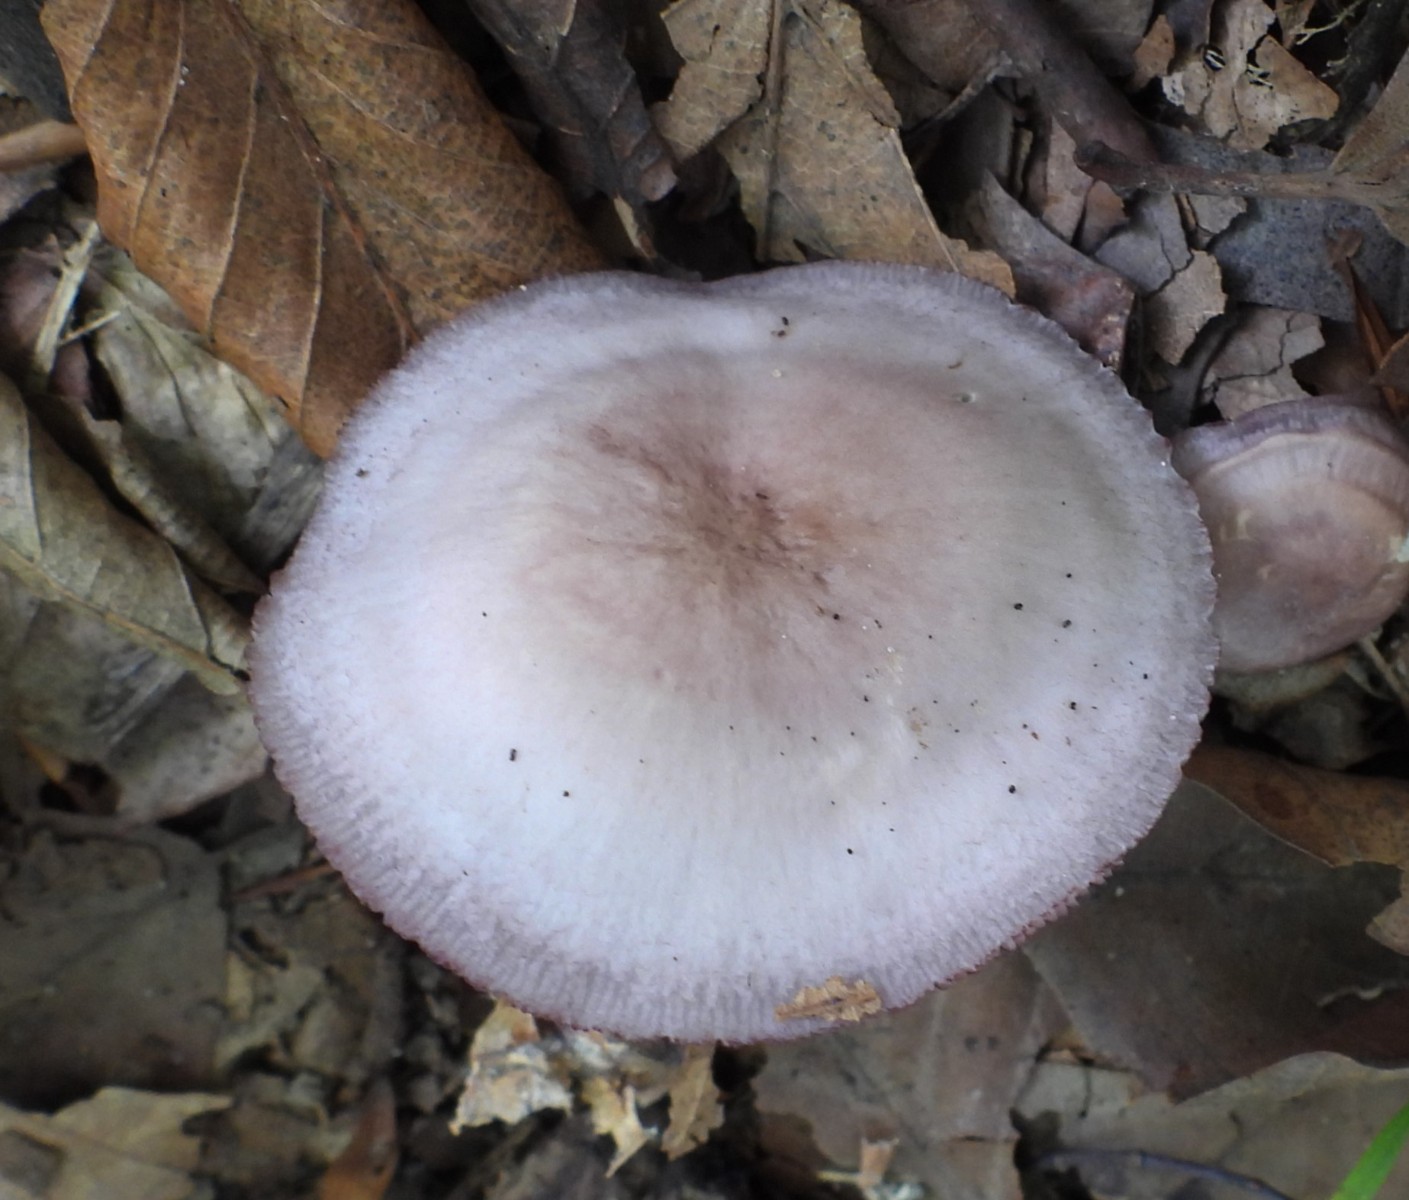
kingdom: Fungi
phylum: Basidiomycota
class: Agaricomycetes
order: Agaricales
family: Mycenaceae
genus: Mycena
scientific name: Mycena pelianthina
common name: mørkbladet huesvamp
